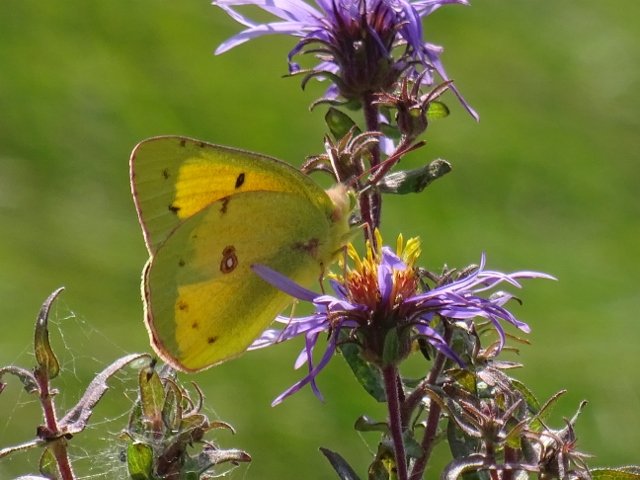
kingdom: Animalia
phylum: Arthropoda
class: Insecta
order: Lepidoptera
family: Pieridae
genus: Colias
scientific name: Colias eurytheme
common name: Orange Sulphur
